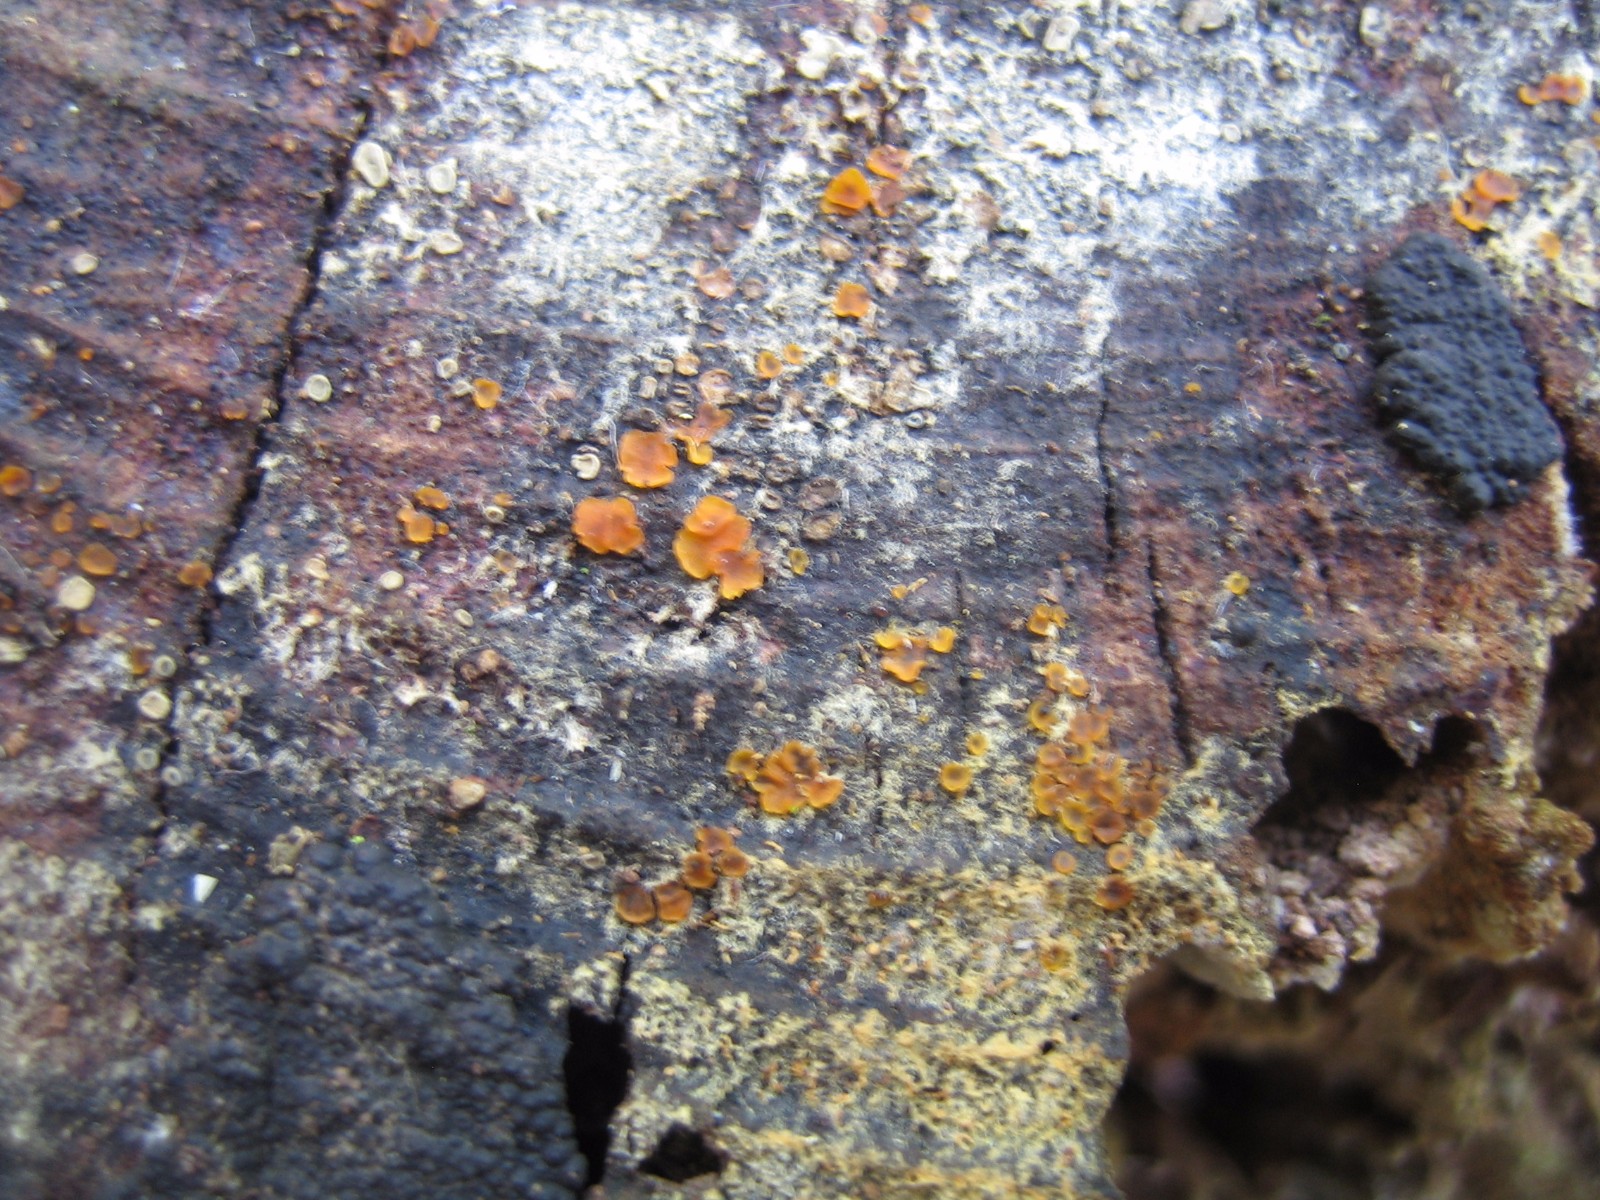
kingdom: Fungi
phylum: Ascomycota
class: Orbiliomycetes
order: Orbiliales
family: Orbiliaceae
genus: Orbilia
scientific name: Orbilia xanthostigma
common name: krumsporet voksskive
